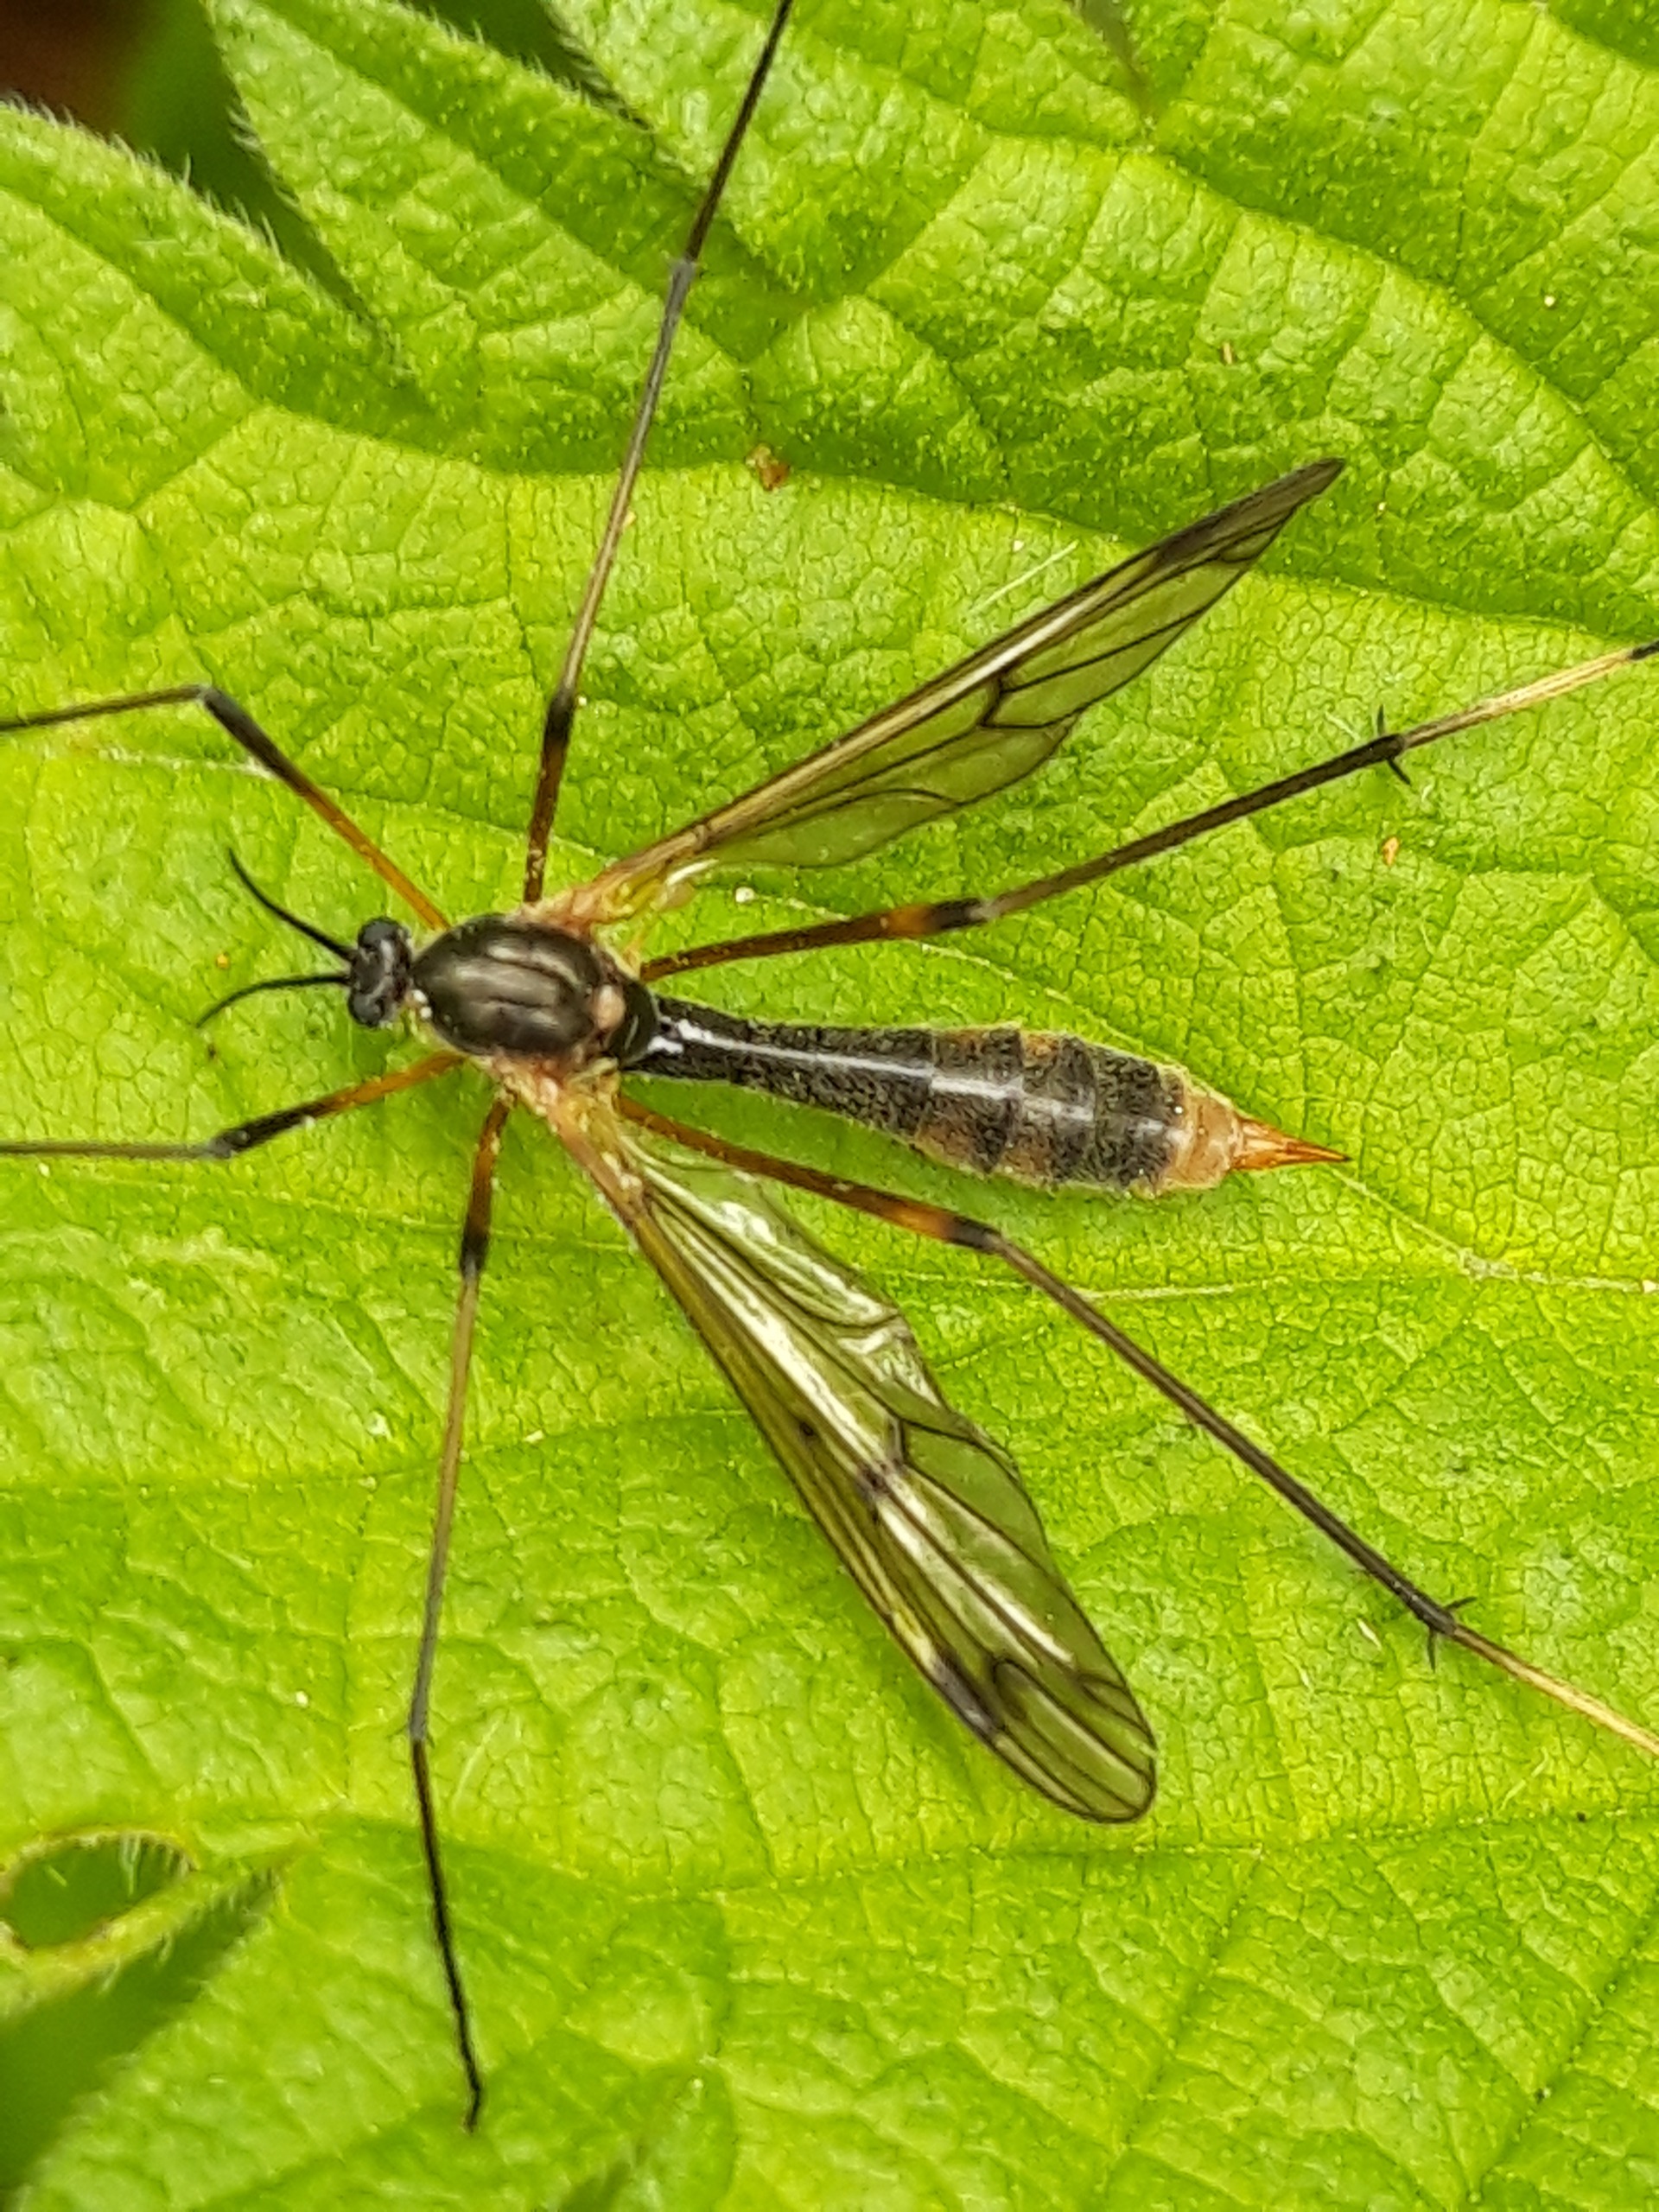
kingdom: Animalia
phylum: Arthropoda
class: Insecta
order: Diptera
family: Ptychopteridae
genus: Ptychoptera
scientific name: Ptychoptera albimanus
